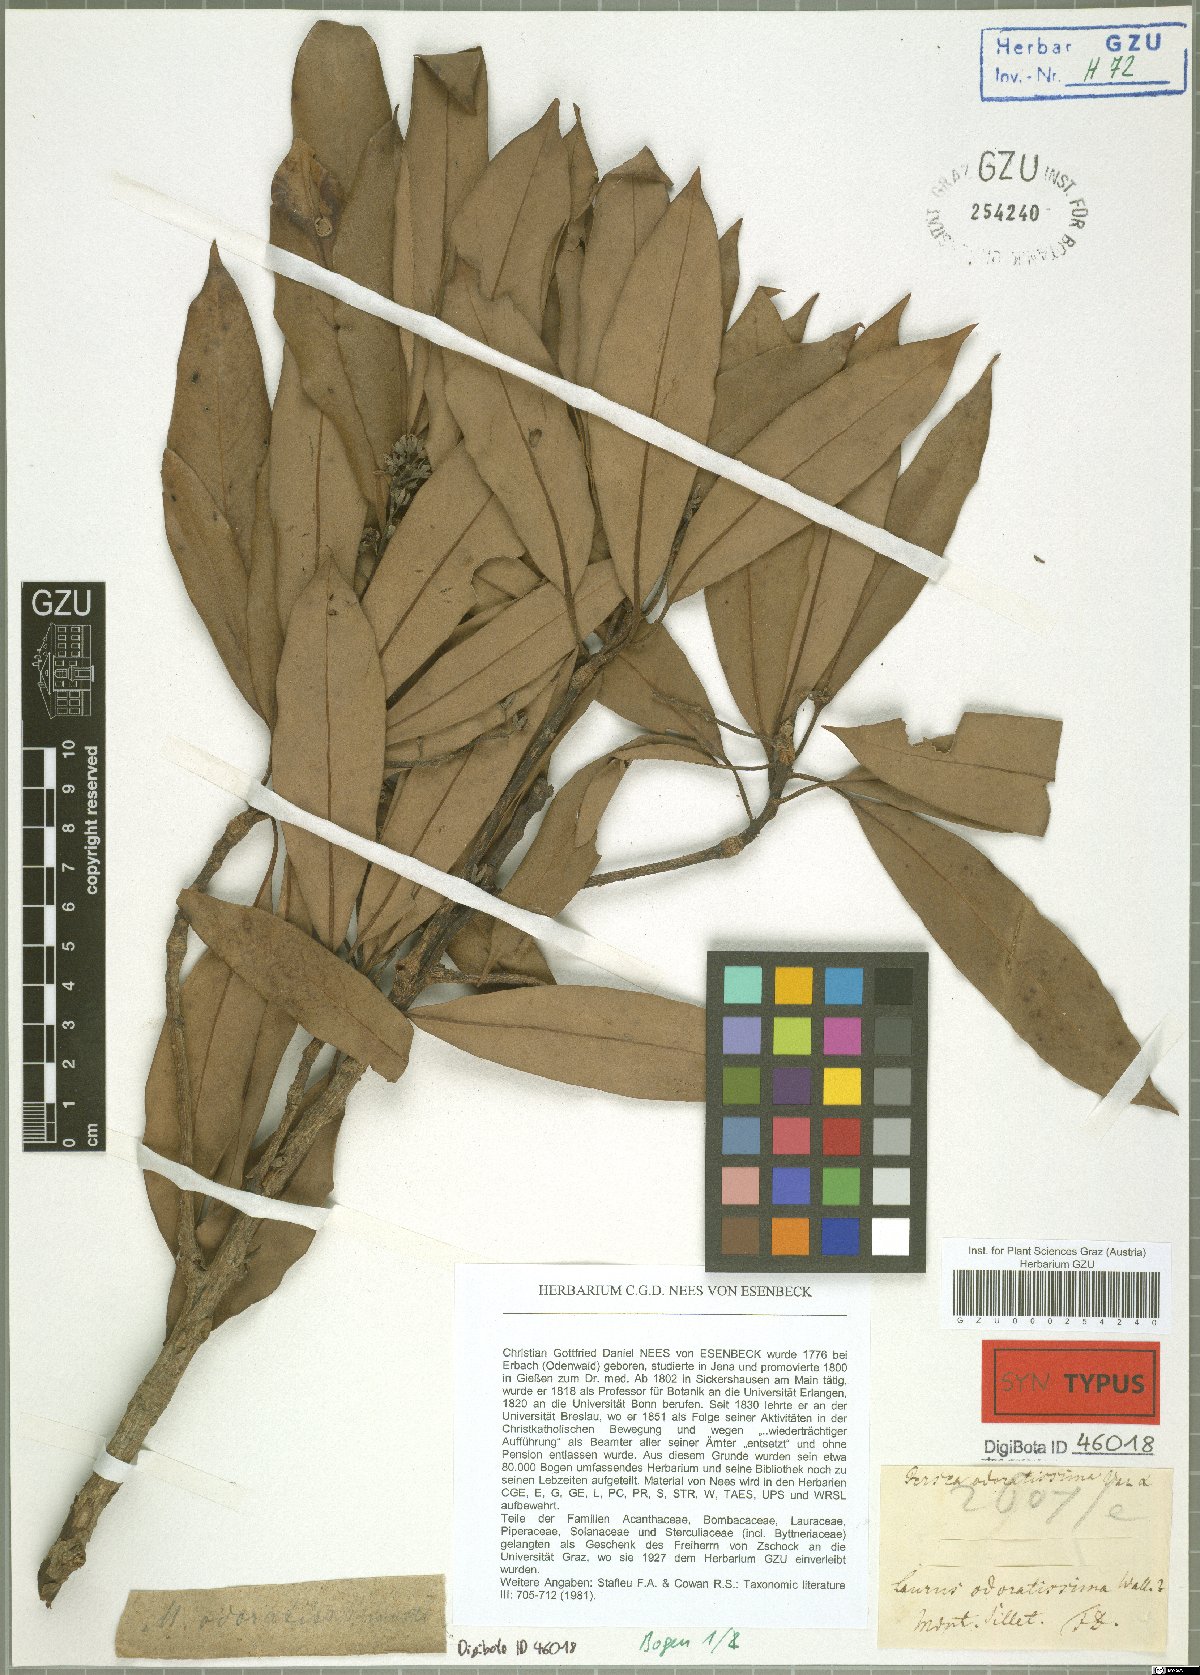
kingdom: Plantae
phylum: Tracheophyta
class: Magnoliopsida
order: Laurales
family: Lauraceae
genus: Machilus
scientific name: Machilus odoratissimus
